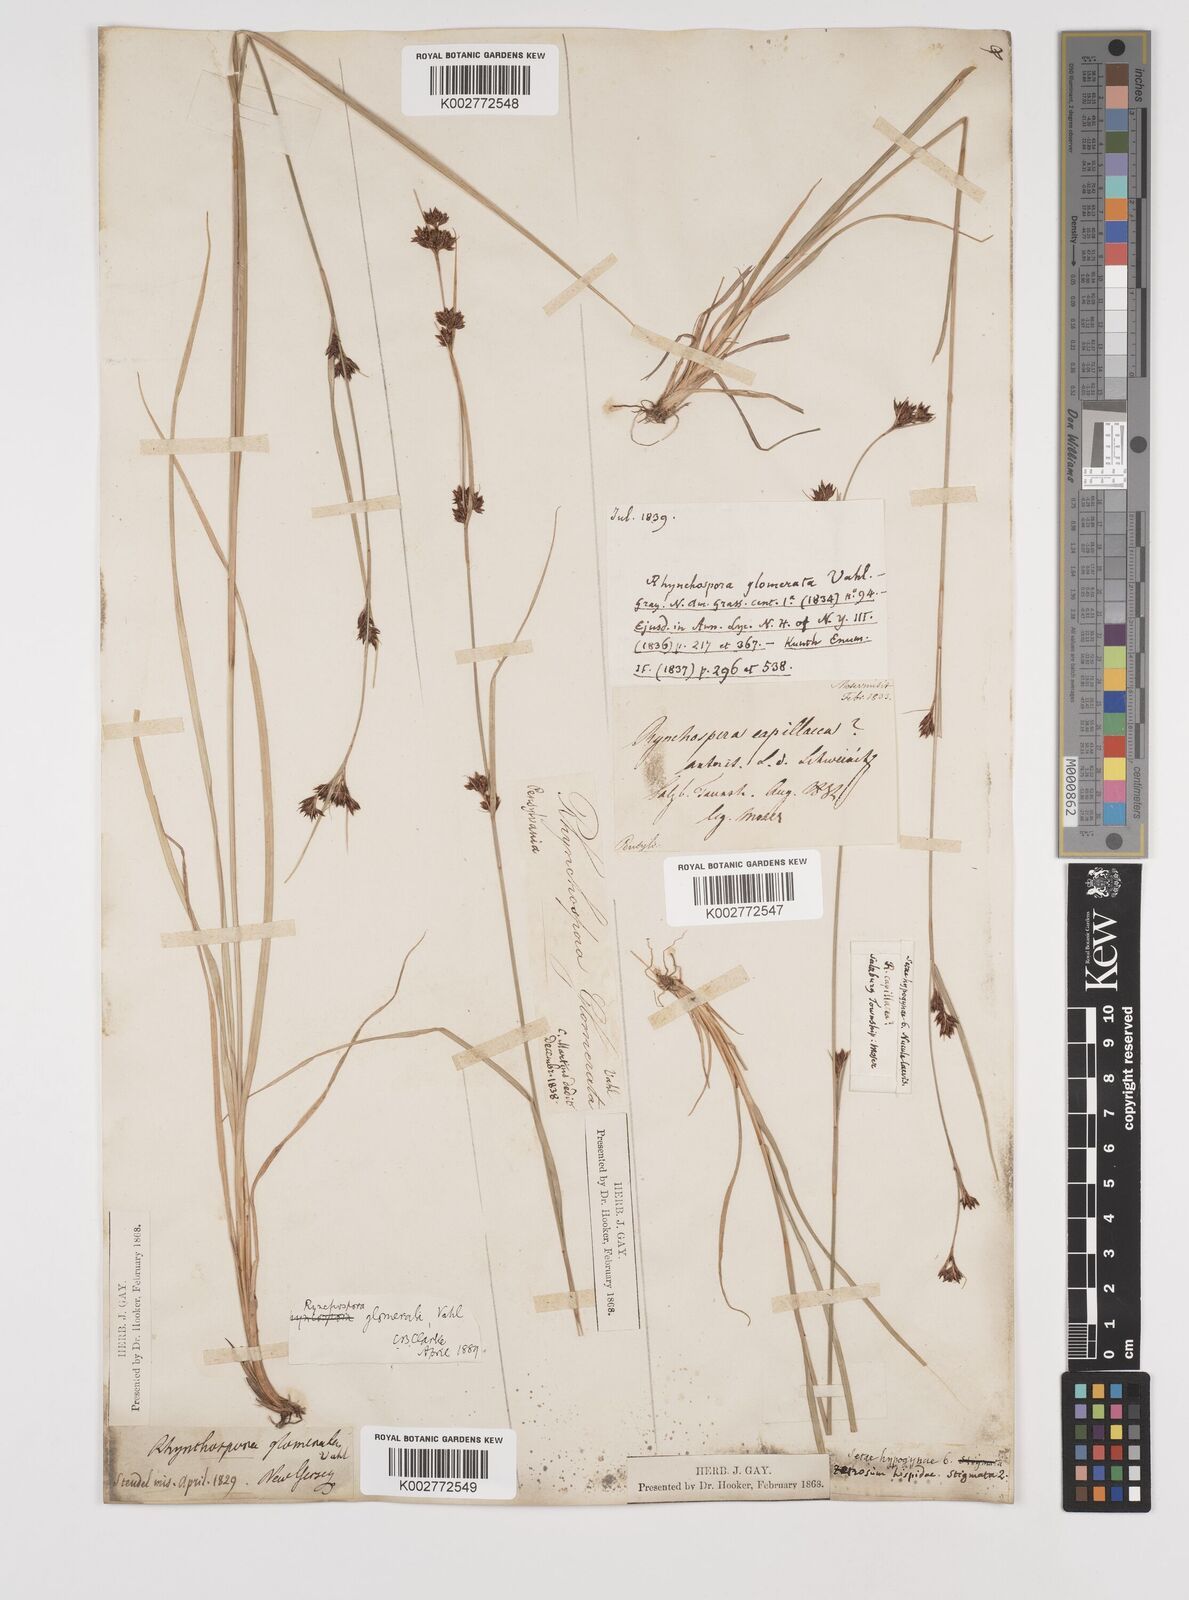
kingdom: Plantae
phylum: Tracheophyta
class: Liliopsida
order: Poales
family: Cyperaceae
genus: Rhynchospora
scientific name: Rhynchospora glomerata
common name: Cluster beak sedge
